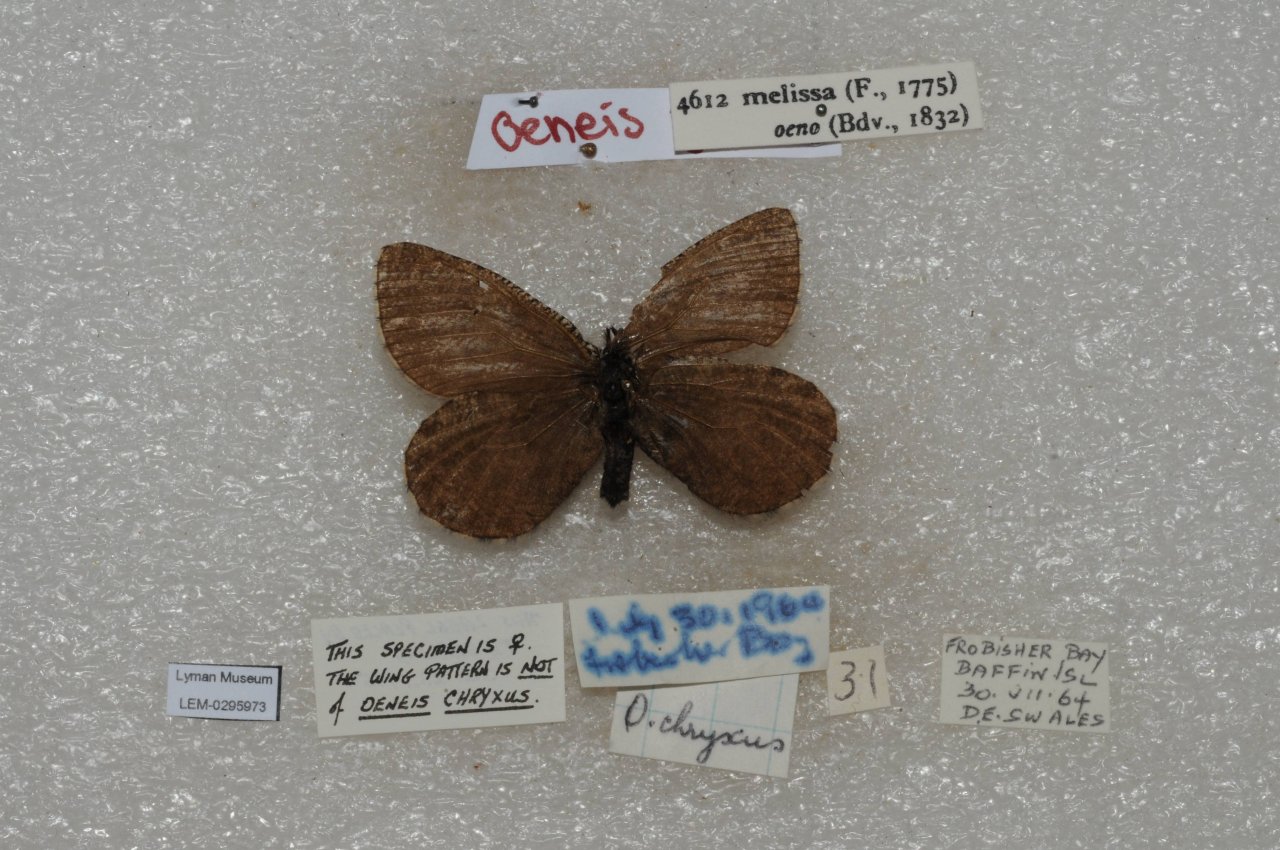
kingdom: Animalia
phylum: Arthropoda
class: Insecta
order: Lepidoptera
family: Nymphalidae
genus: Oeneis
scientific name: Oeneis melissa
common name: Melissa Arctic
